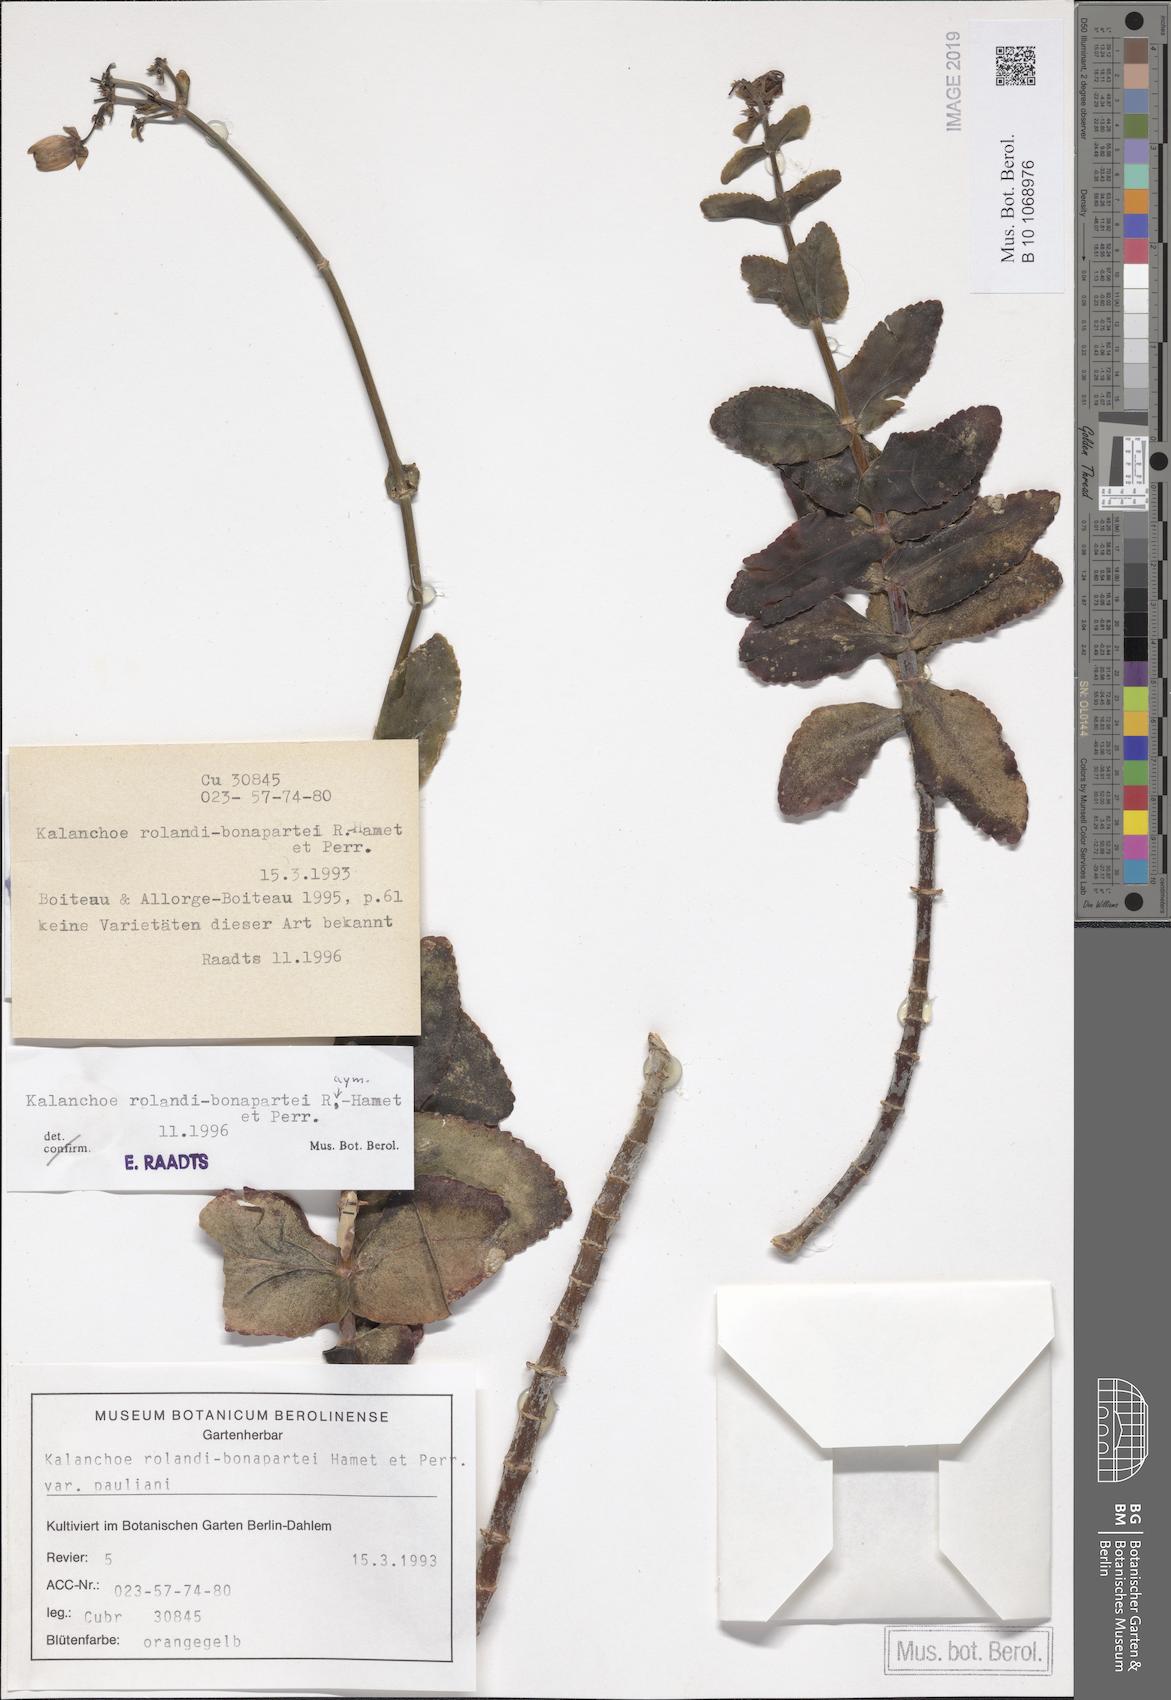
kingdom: Plantae
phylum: Tracheophyta
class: Magnoliopsida
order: Saxifragales
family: Crassulaceae
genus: Kalanchoe
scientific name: Kalanchoe rolandi-bonapartei
